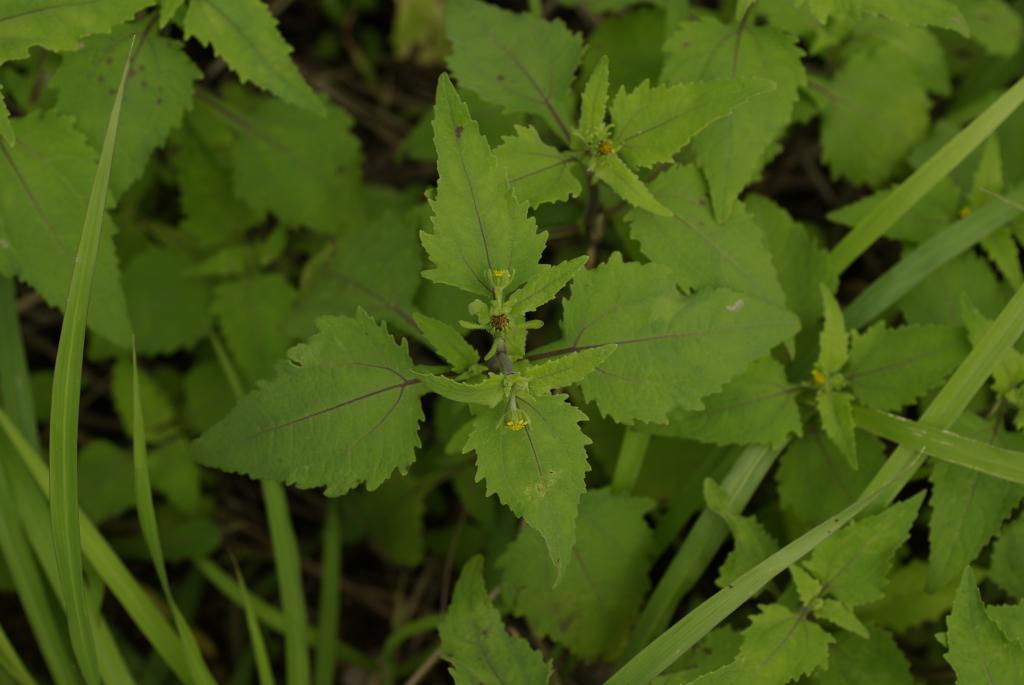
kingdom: Plantae
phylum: Tracheophyta
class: Magnoliopsida
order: Asterales
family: Asteraceae
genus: Sigesbeckia
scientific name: Sigesbeckia orientalis
